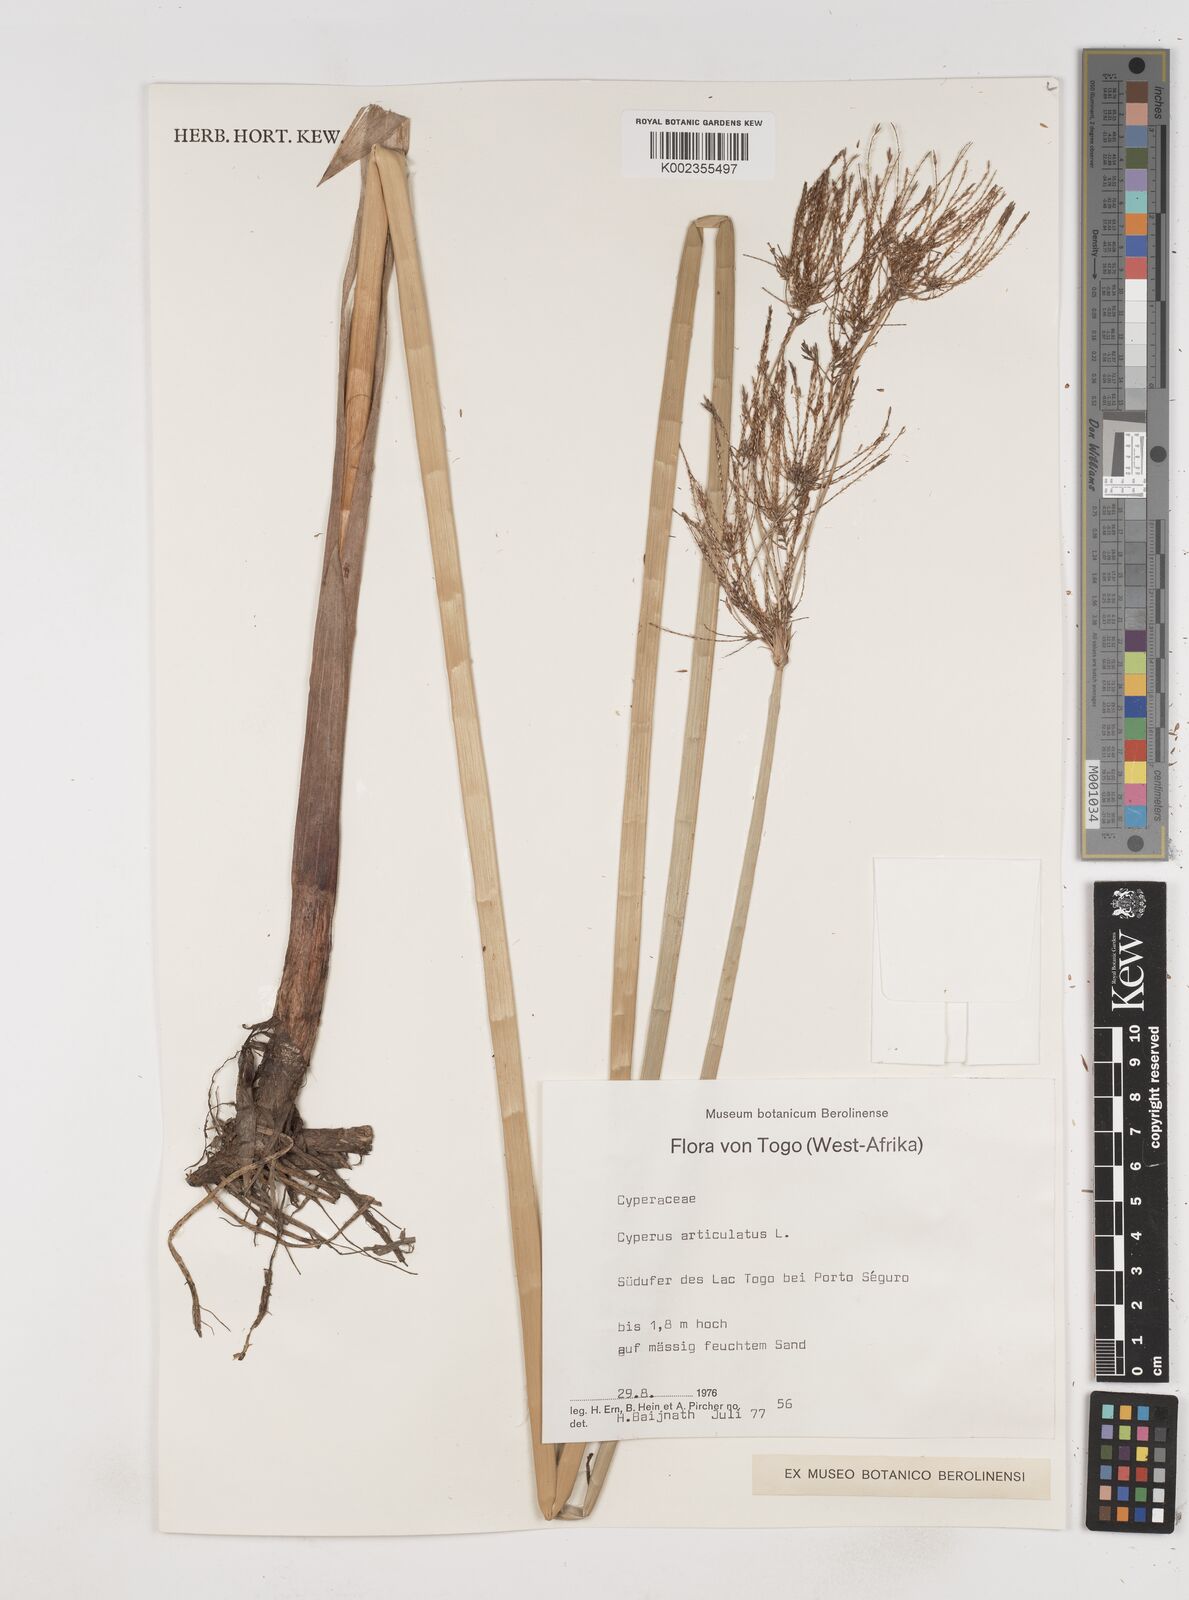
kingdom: Plantae
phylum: Tracheophyta
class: Liliopsida
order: Poales
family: Cyperaceae
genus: Cyperus
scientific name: Cyperus articulatus
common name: Jointed flatsedge
